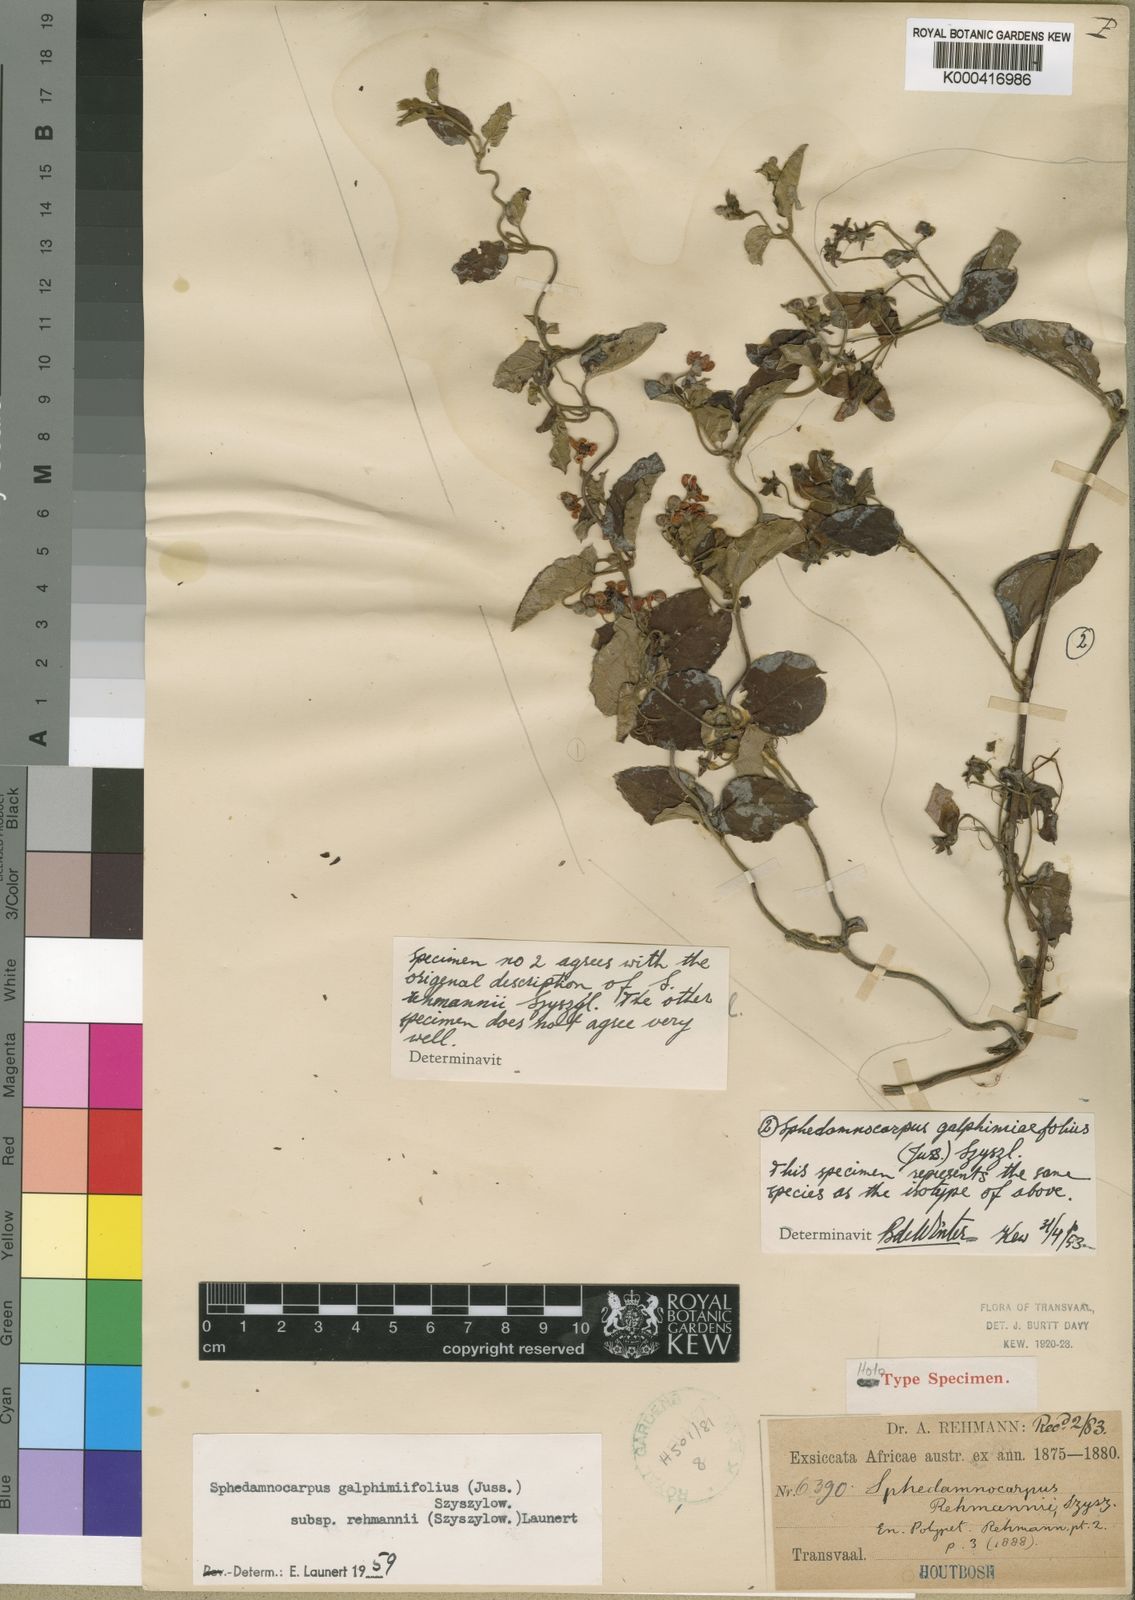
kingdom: Plantae
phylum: Tracheophyta
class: Magnoliopsida
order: Malpighiales
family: Malpighiaceae
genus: Sphedamnocarpus
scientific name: Sphedamnocarpus galphimiifolius
